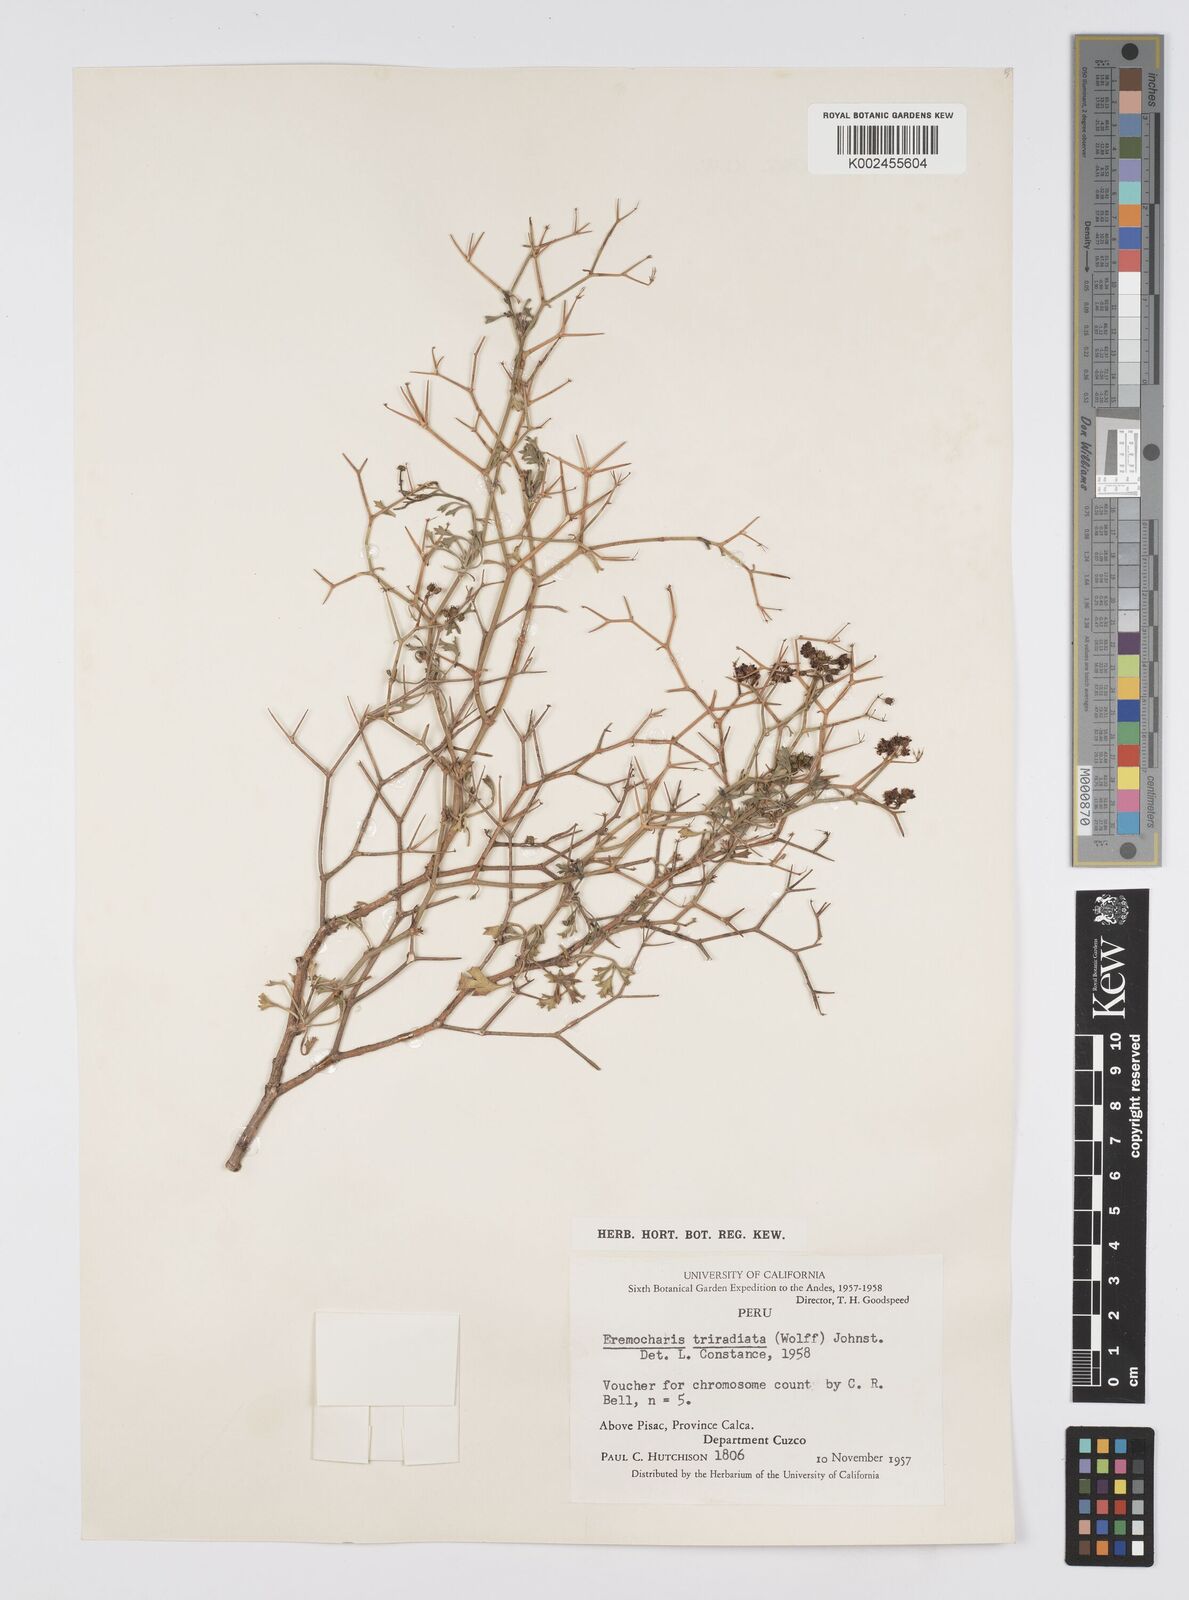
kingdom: Plantae
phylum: Tracheophyta
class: Magnoliopsida
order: Apiales
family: Apiaceae
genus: Eremocharis
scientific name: Eremocharis triradiata
